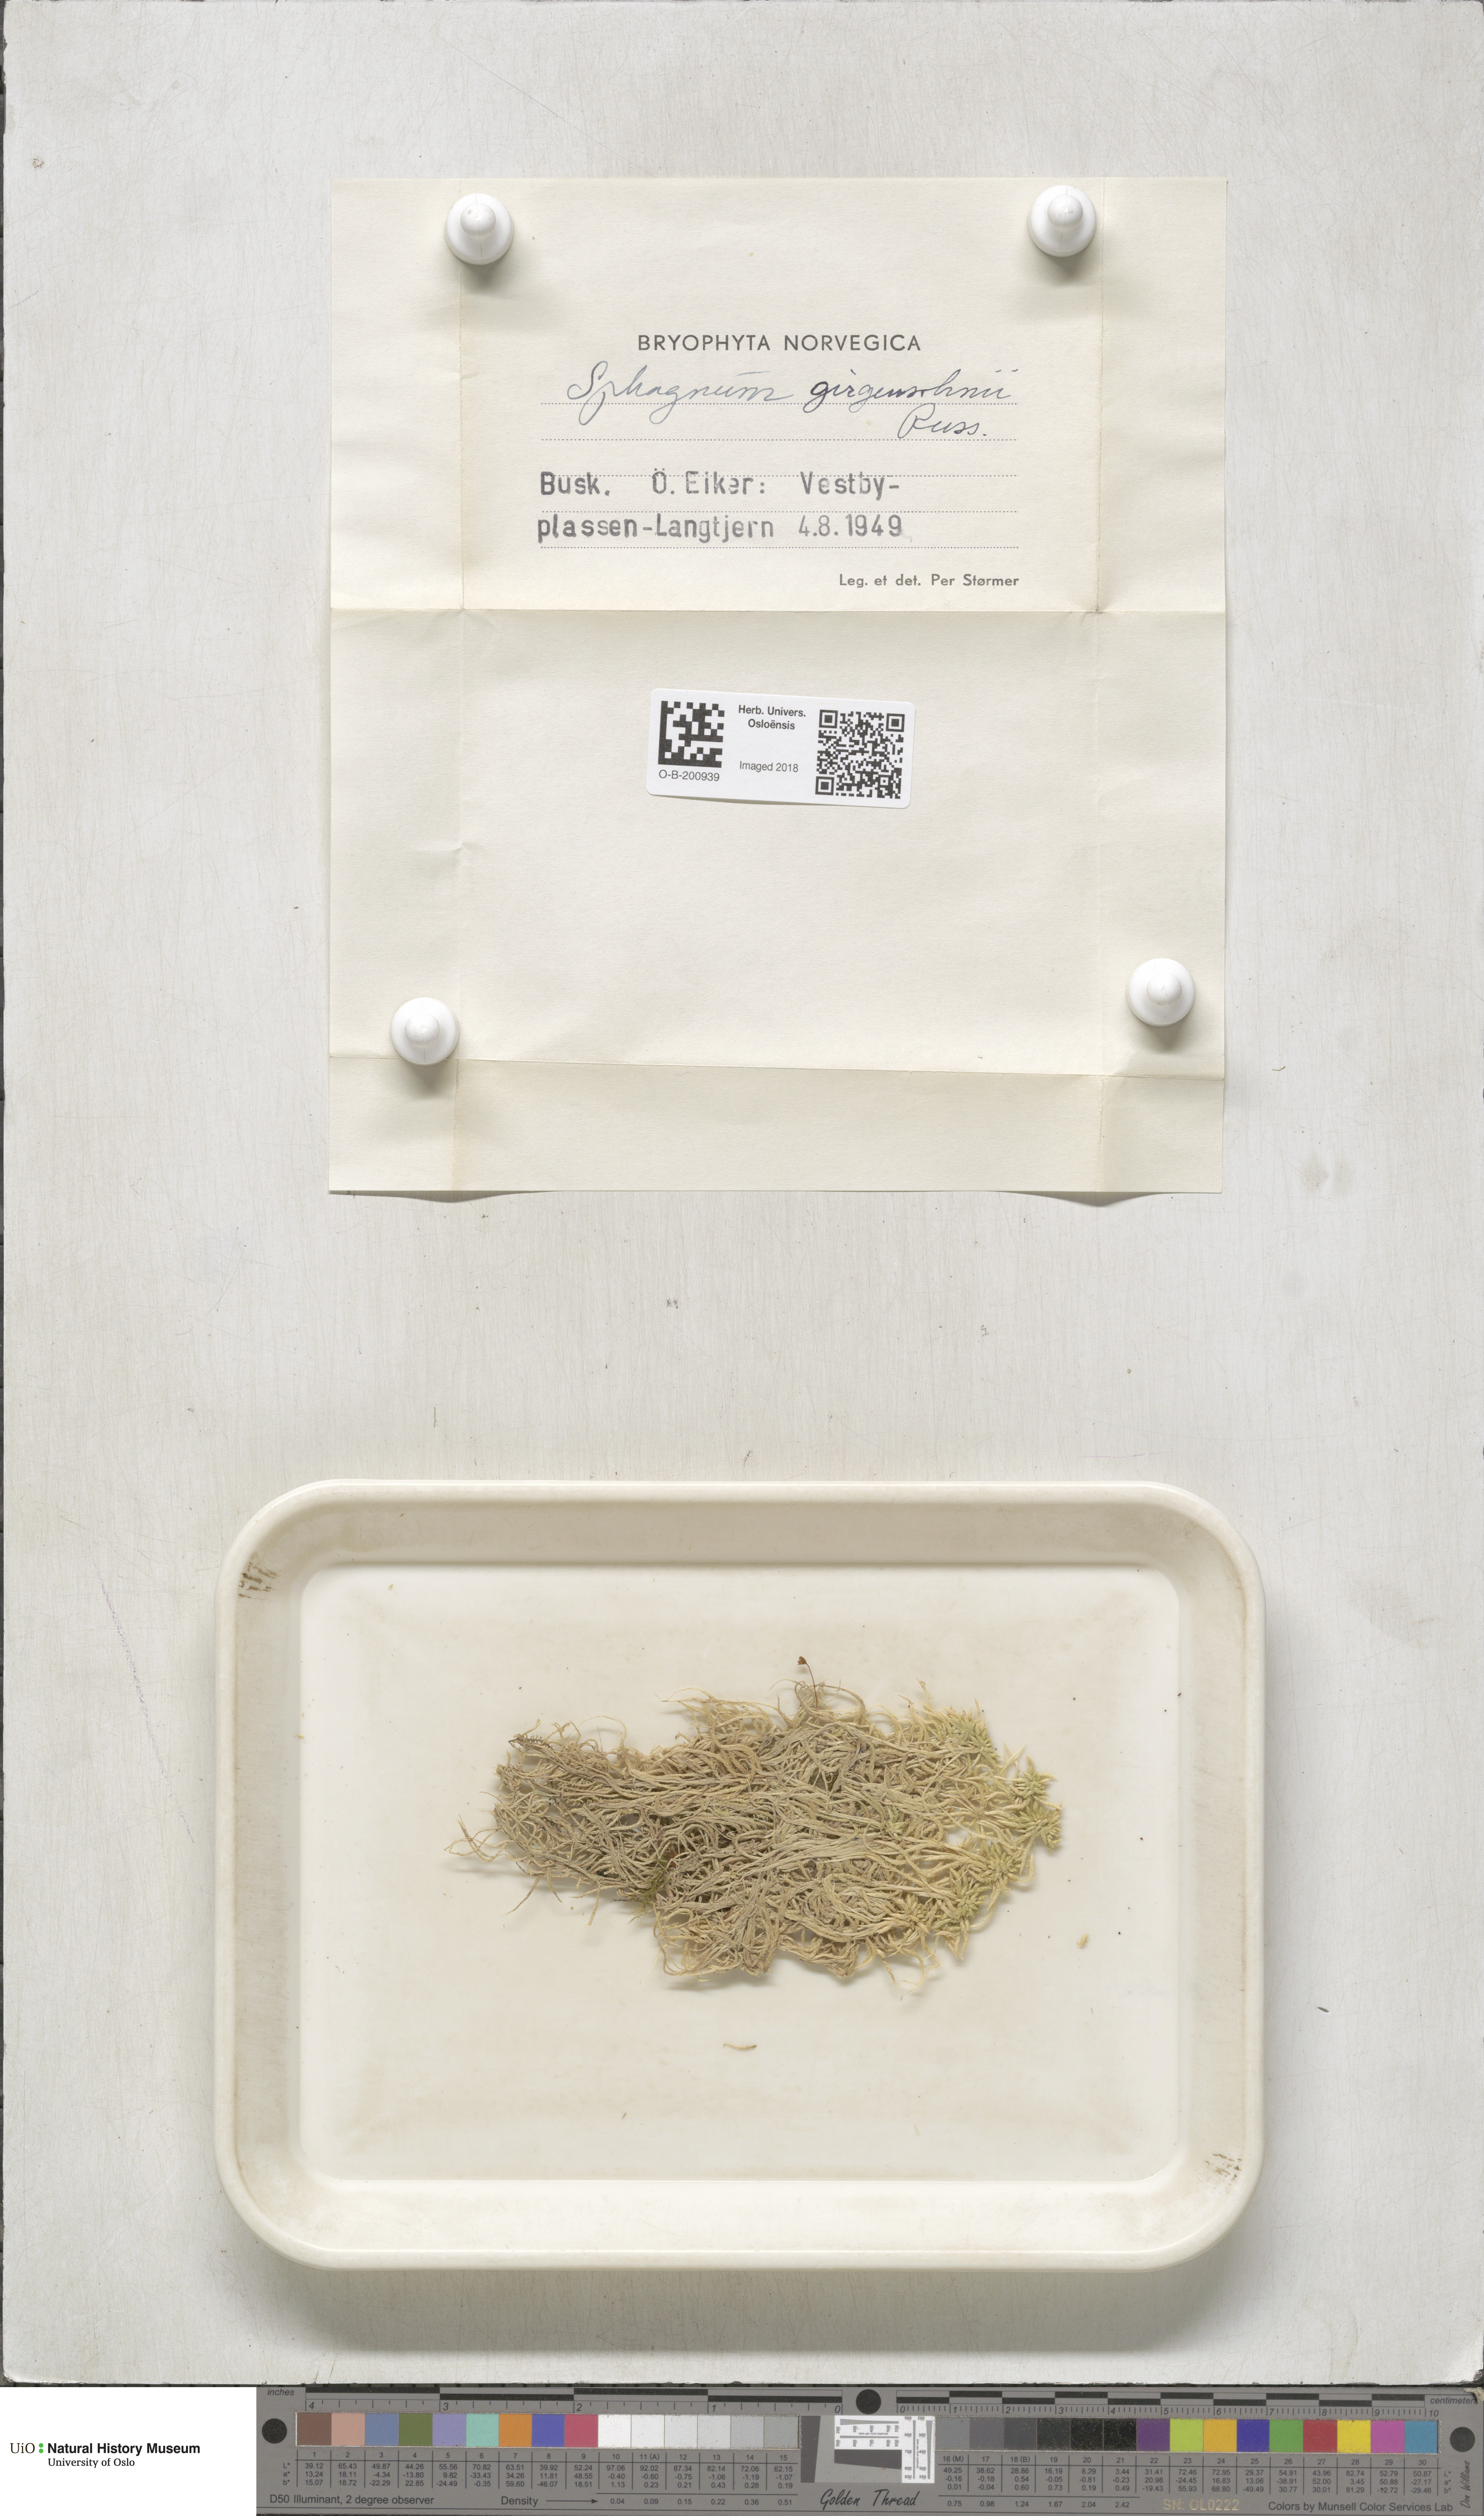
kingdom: Plantae
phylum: Bryophyta
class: Sphagnopsida
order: Sphagnales
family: Sphagnaceae
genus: Sphagnum
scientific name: Sphagnum girgensohnii
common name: Girgensohn's peat moss
